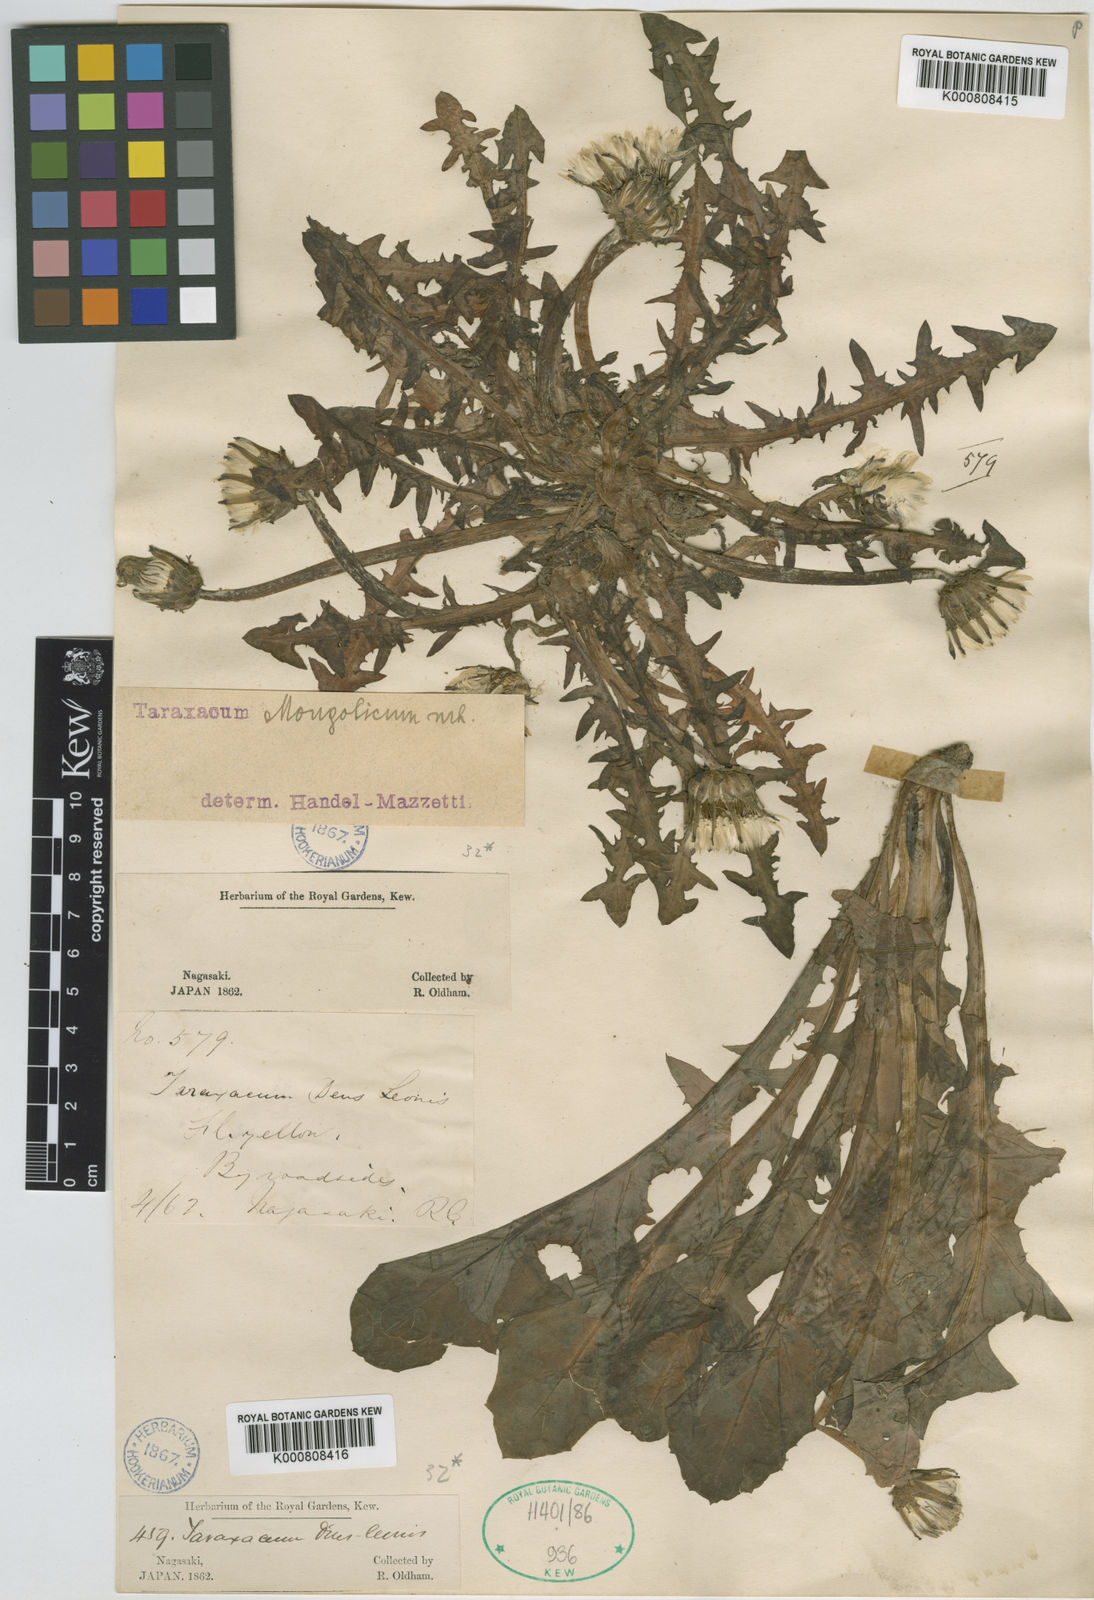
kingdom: Plantae
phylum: Tracheophyta
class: Magnoliopsida
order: Asterales
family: Asteraceae
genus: Taraxacum
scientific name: Taraxacum
